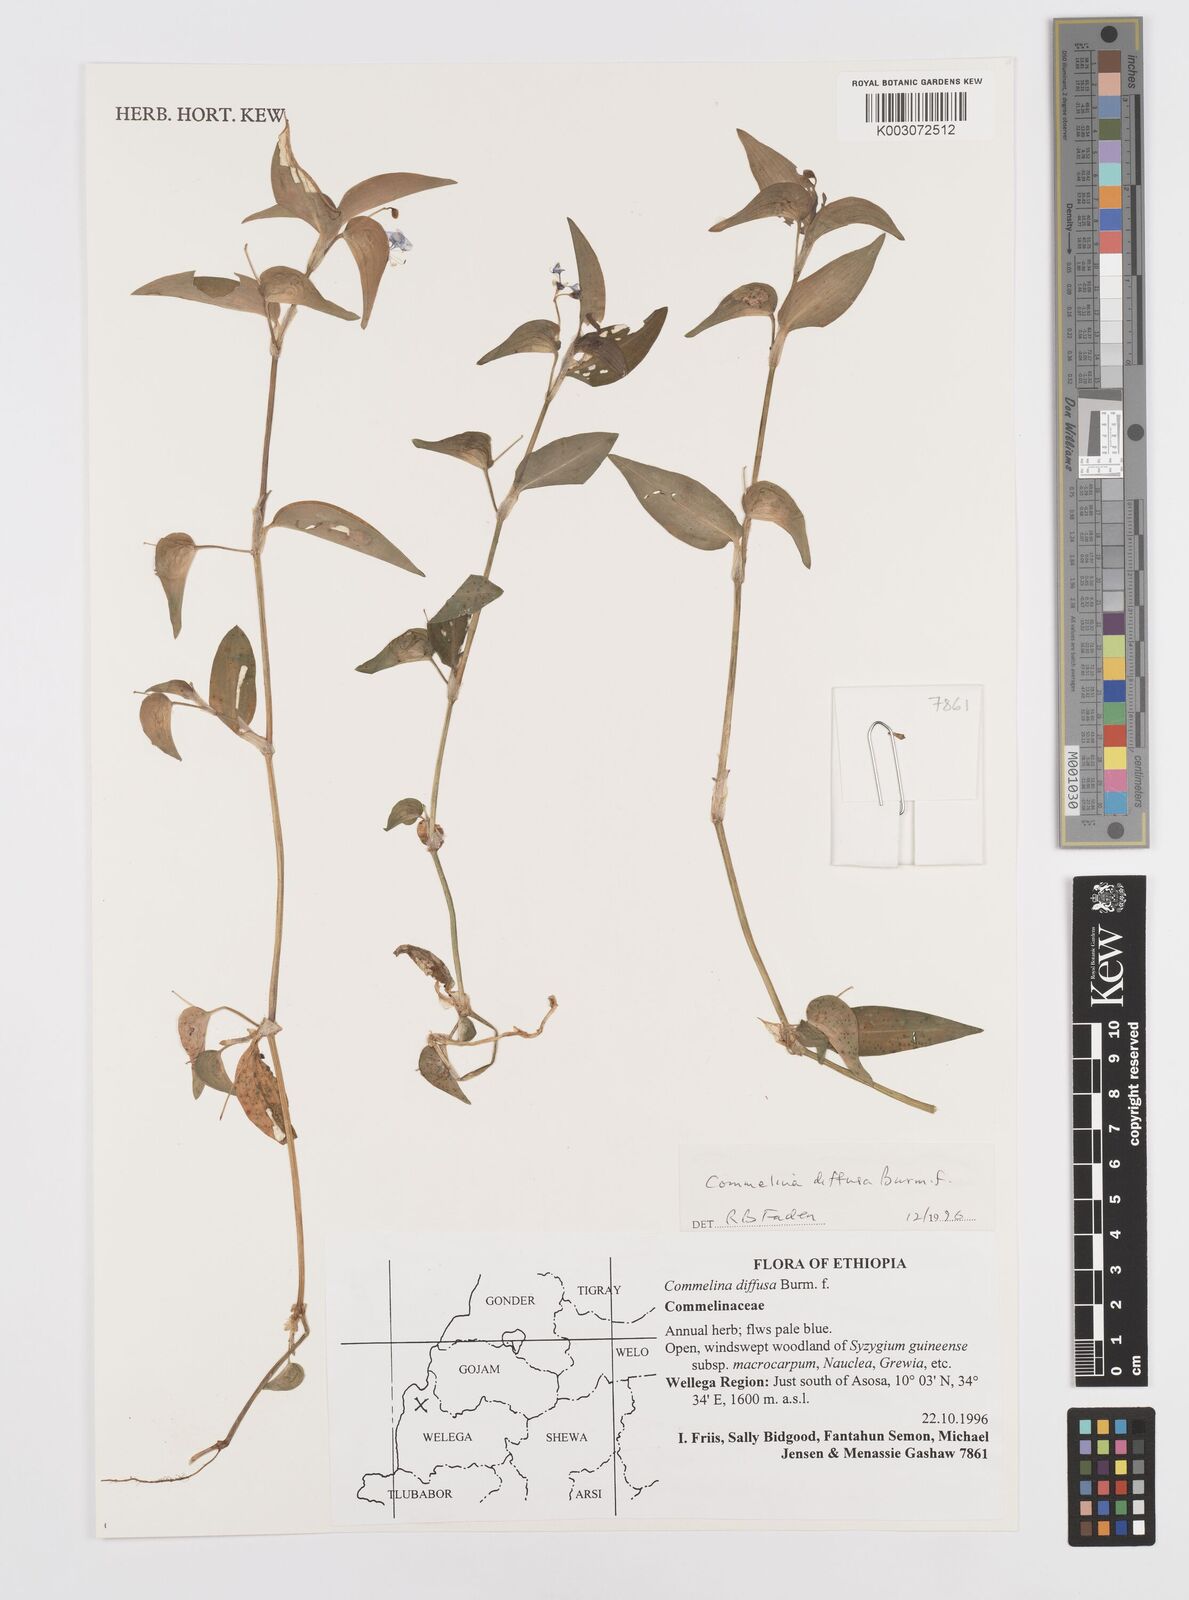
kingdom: Plantae
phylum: Tracheophyta
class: Liliopsida
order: Commelinales
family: Commelinaceae
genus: Commelina
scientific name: Commelina diffusa
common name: Climbing dayflower
